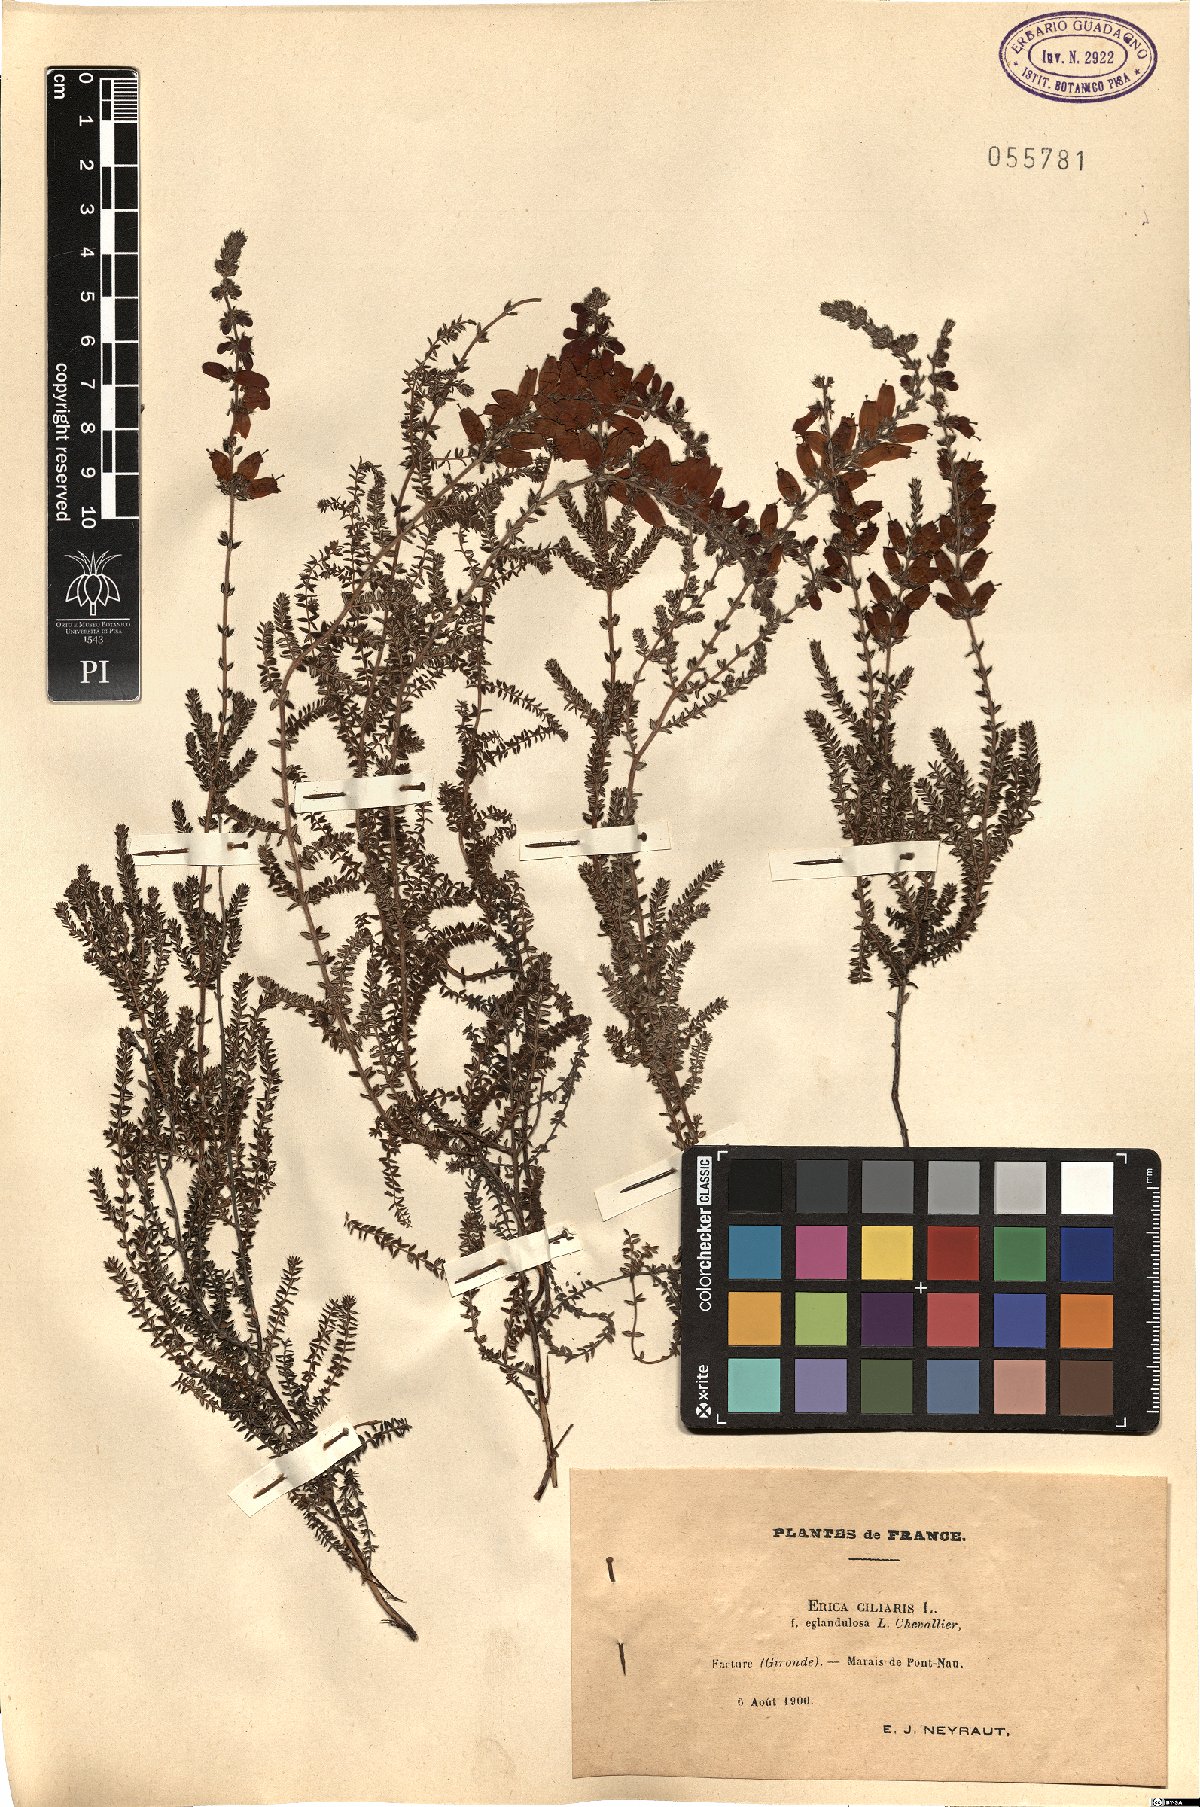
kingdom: Plantae
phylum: Tracheophyta
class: Magnoliopsida
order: Ericales
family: Ericaceae
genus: Erica
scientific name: Erica ciliaris
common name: Dorset heath
